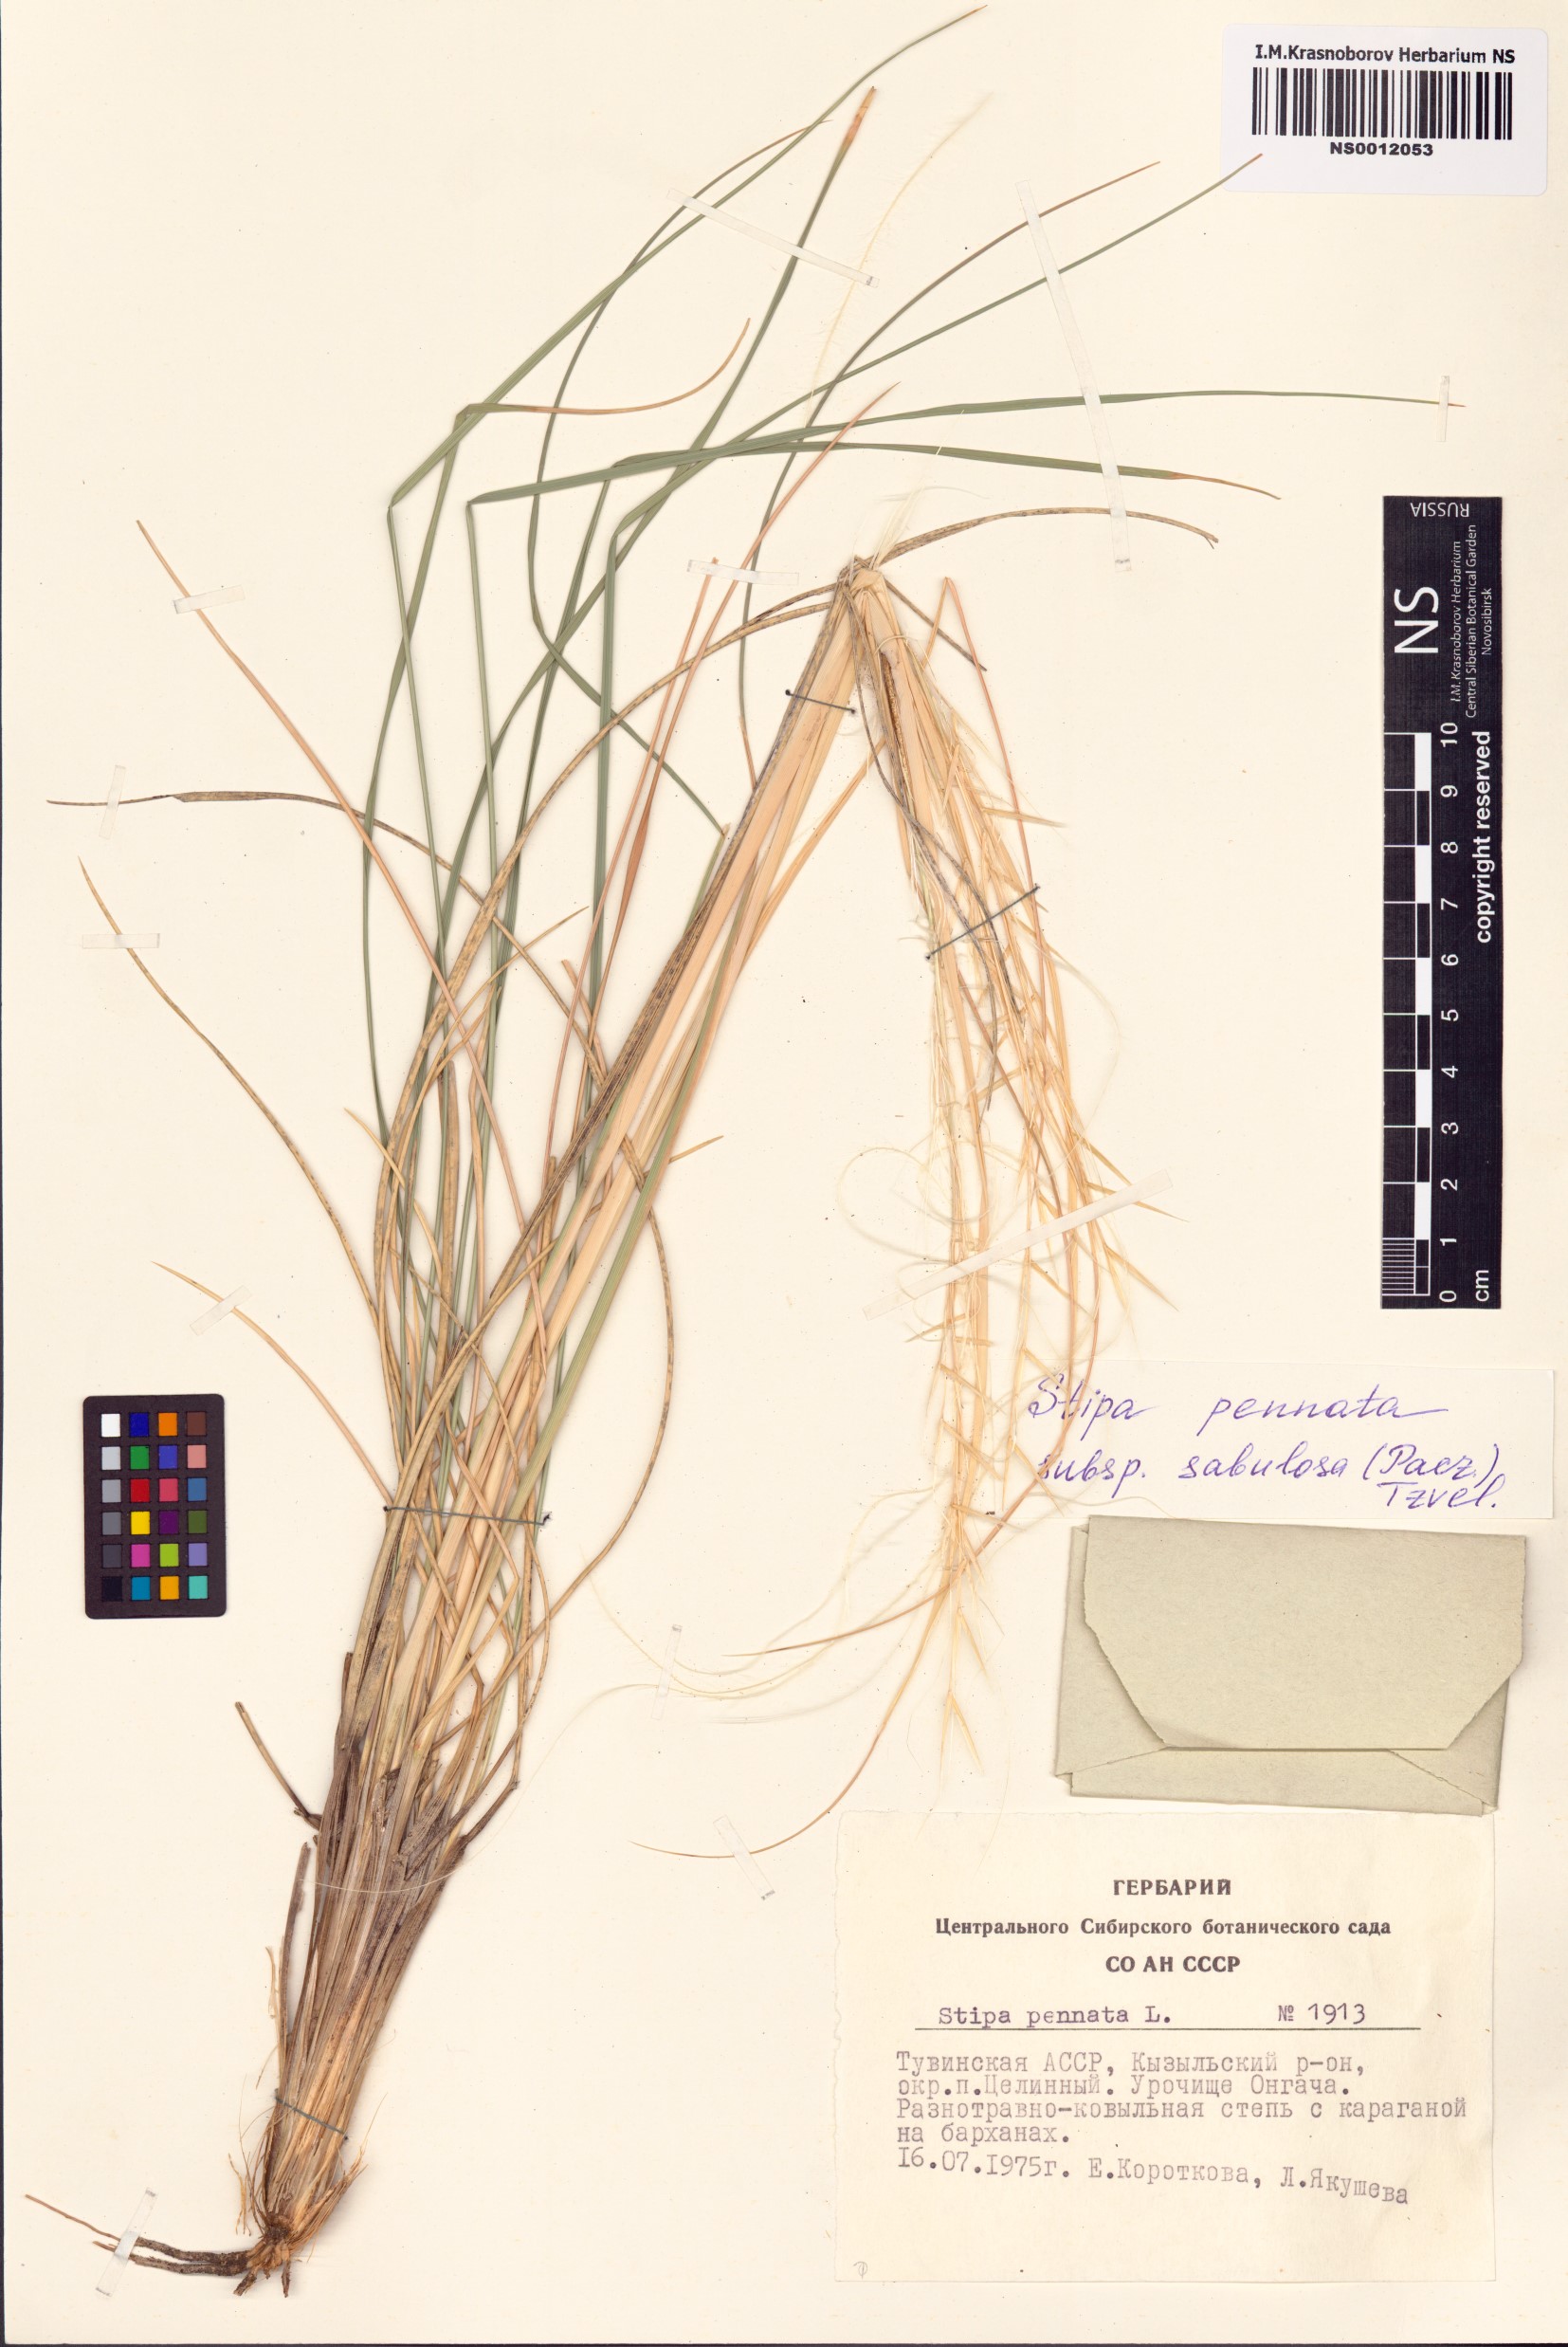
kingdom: Plantae
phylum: Tracheophyta
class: Liliopsida
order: Poales
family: Poaceae
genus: Stipa
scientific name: Stipa borysthenica
